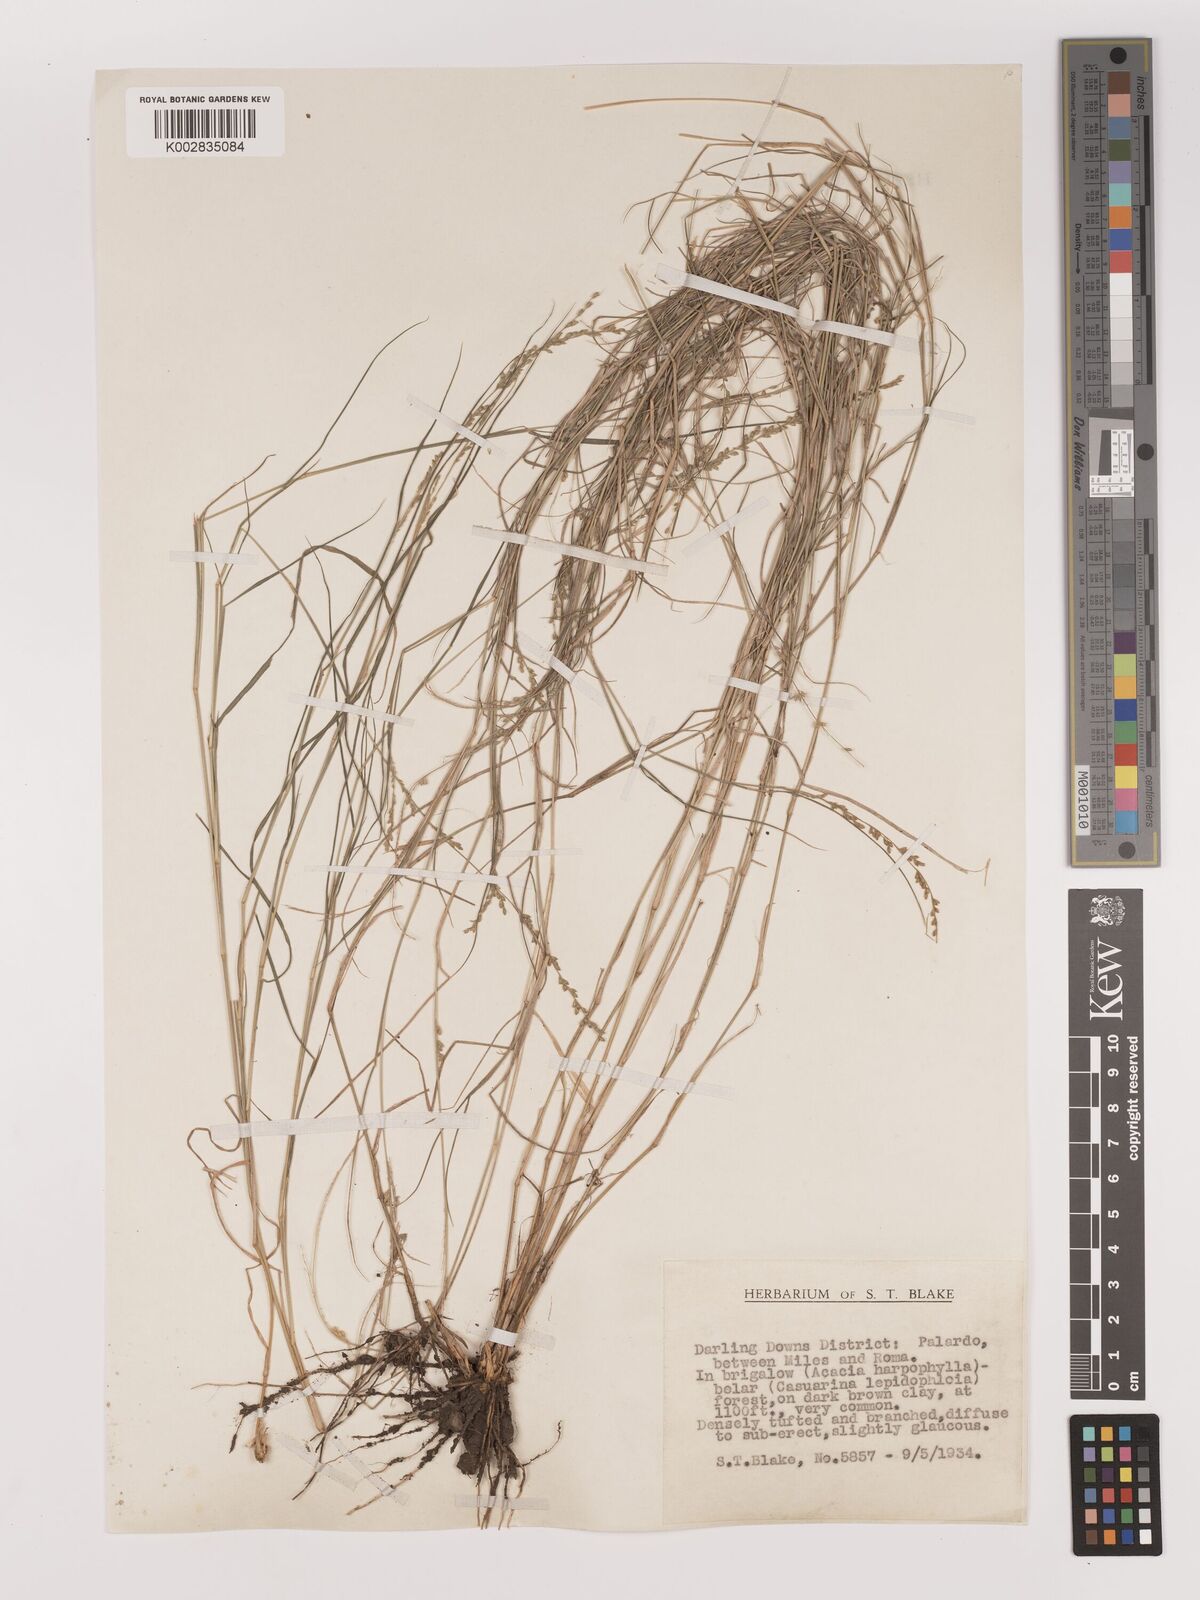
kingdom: Plantae
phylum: Tracheophyta
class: Liliopsida
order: Poales
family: Poaceae
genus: Setaria
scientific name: Setaria
